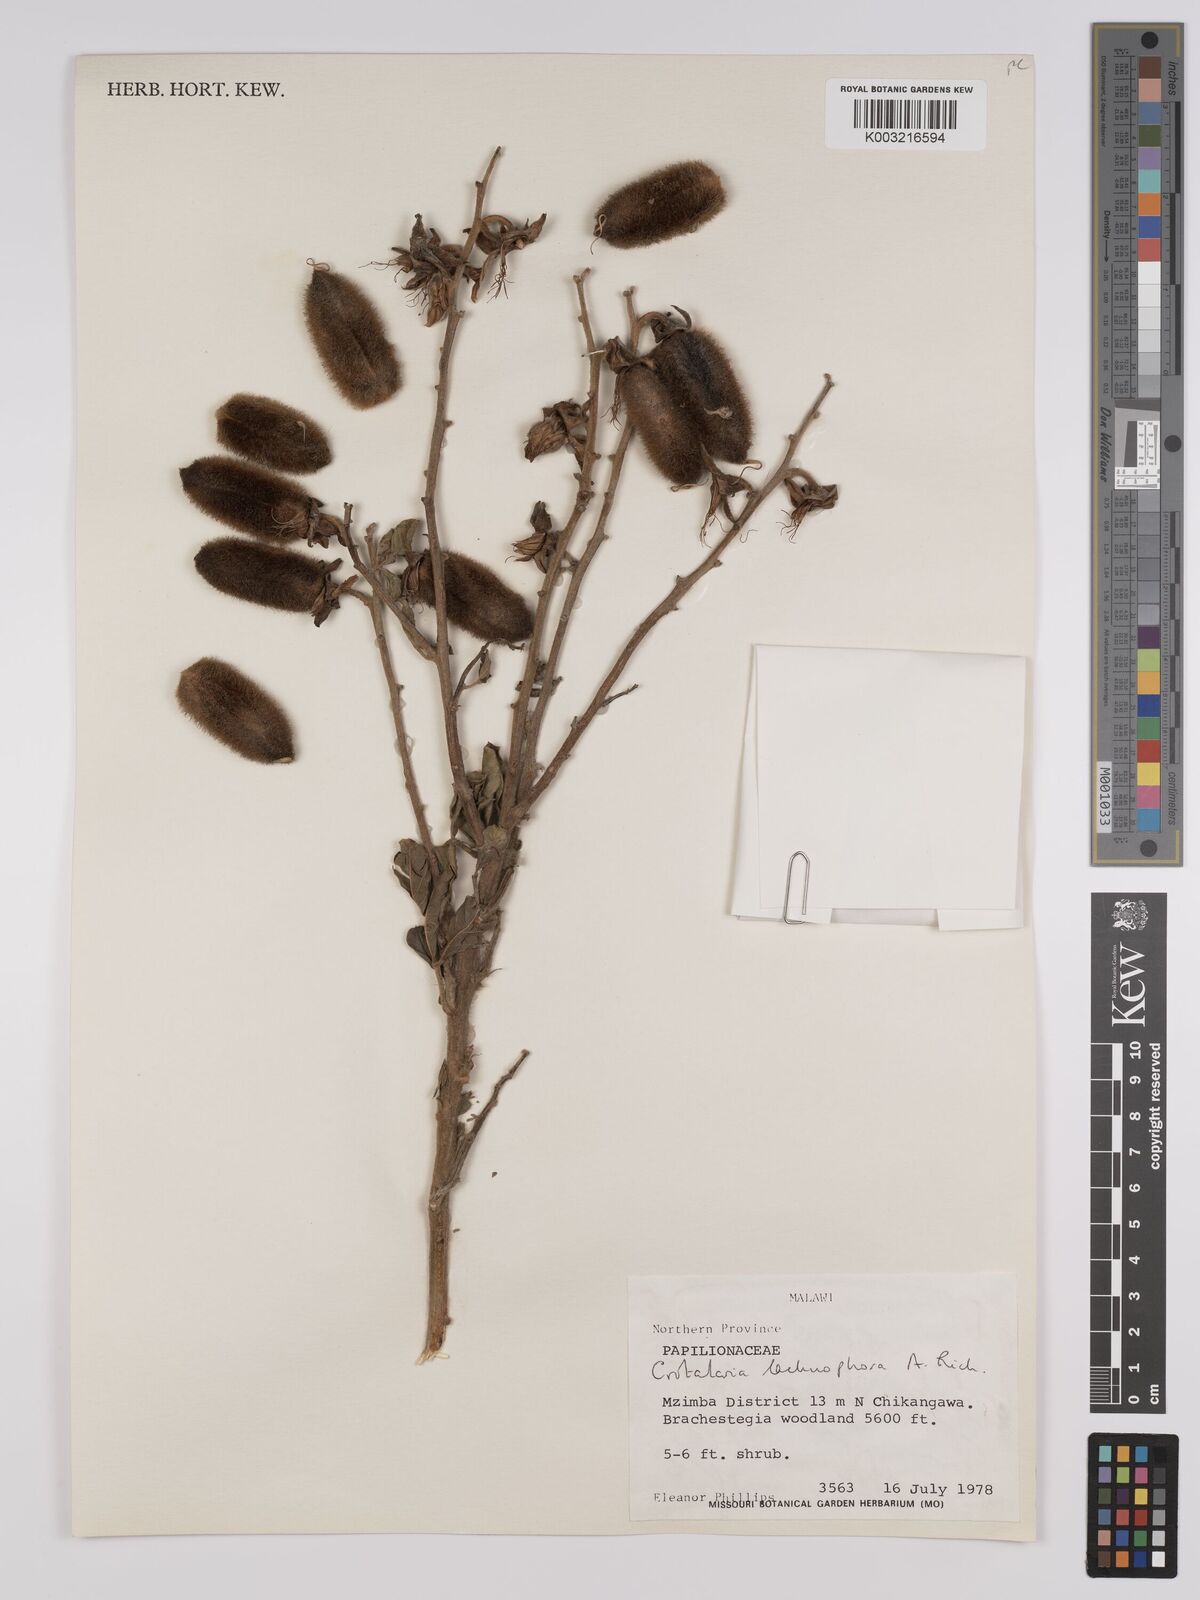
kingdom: Plantae
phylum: Tracheophyta
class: Magnoliopsida
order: Fabales
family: Fabaceae
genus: Crotalaria
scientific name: Crotalaria lachnophora
